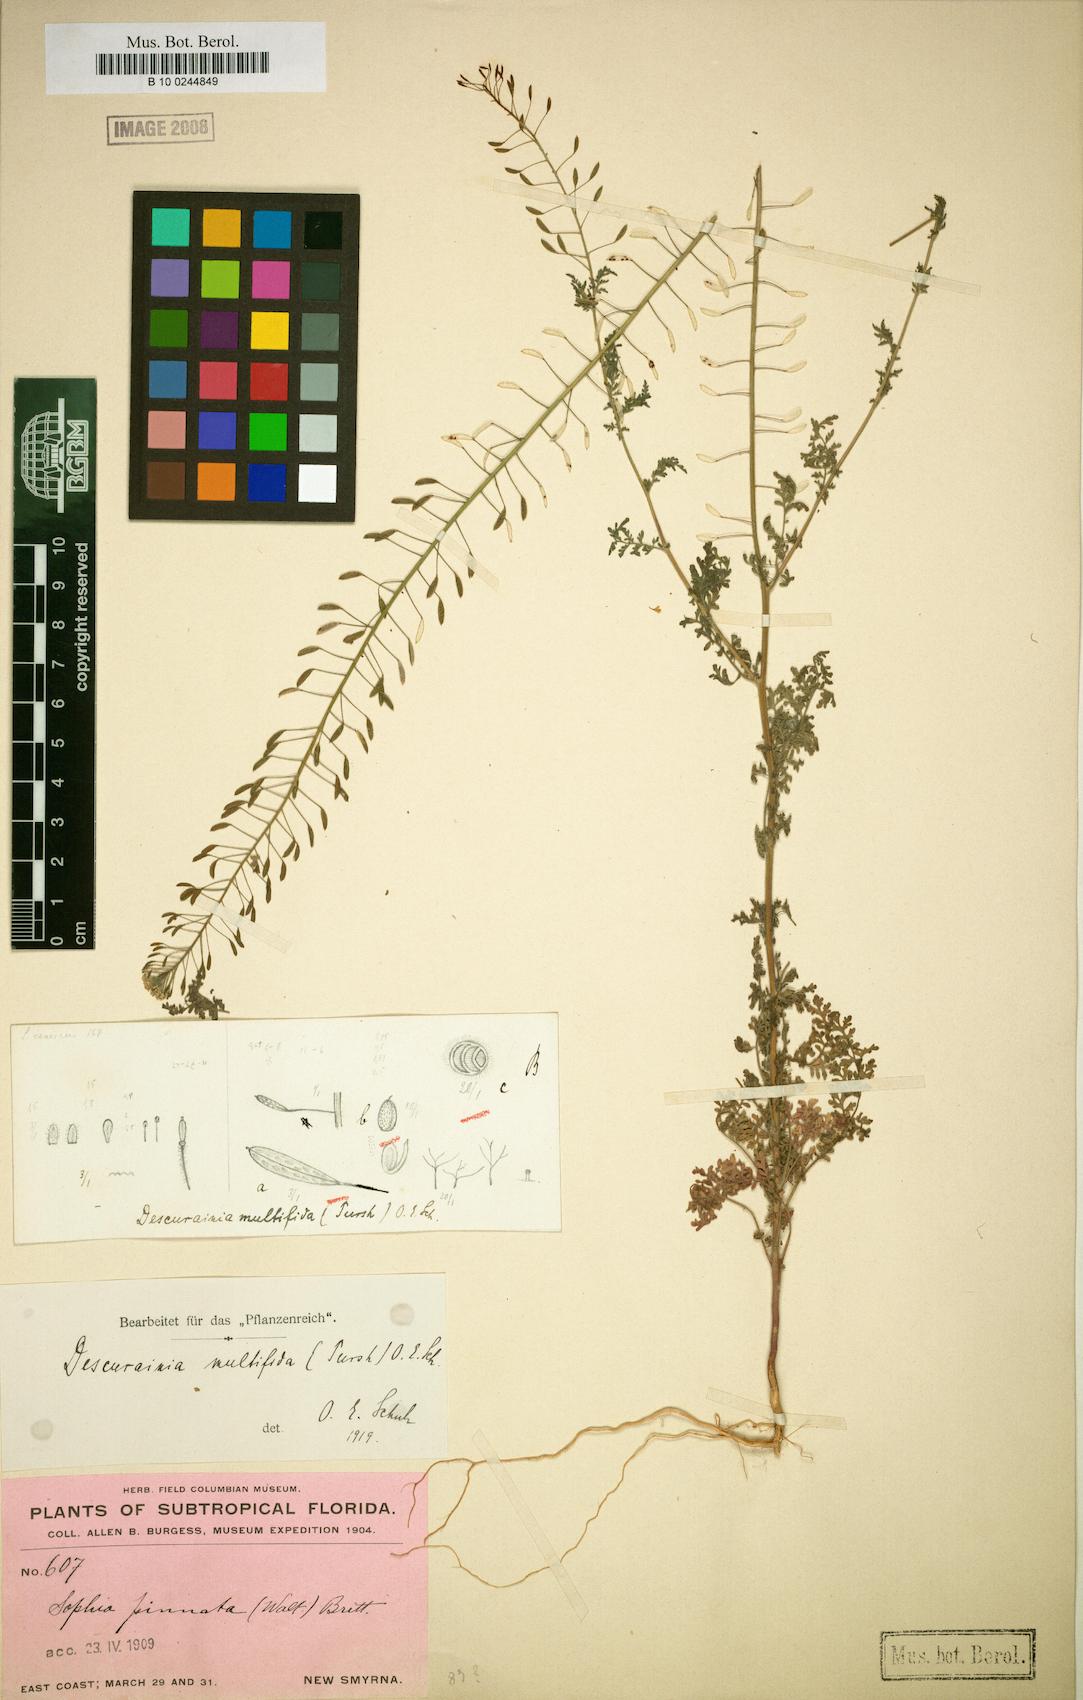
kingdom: Plantae
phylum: Tracheophyta
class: Magnoliopsida
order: Brassicales
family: Brassicaceae
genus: Descurainia
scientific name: Descurainia pinnata
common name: Western tansy mustard
